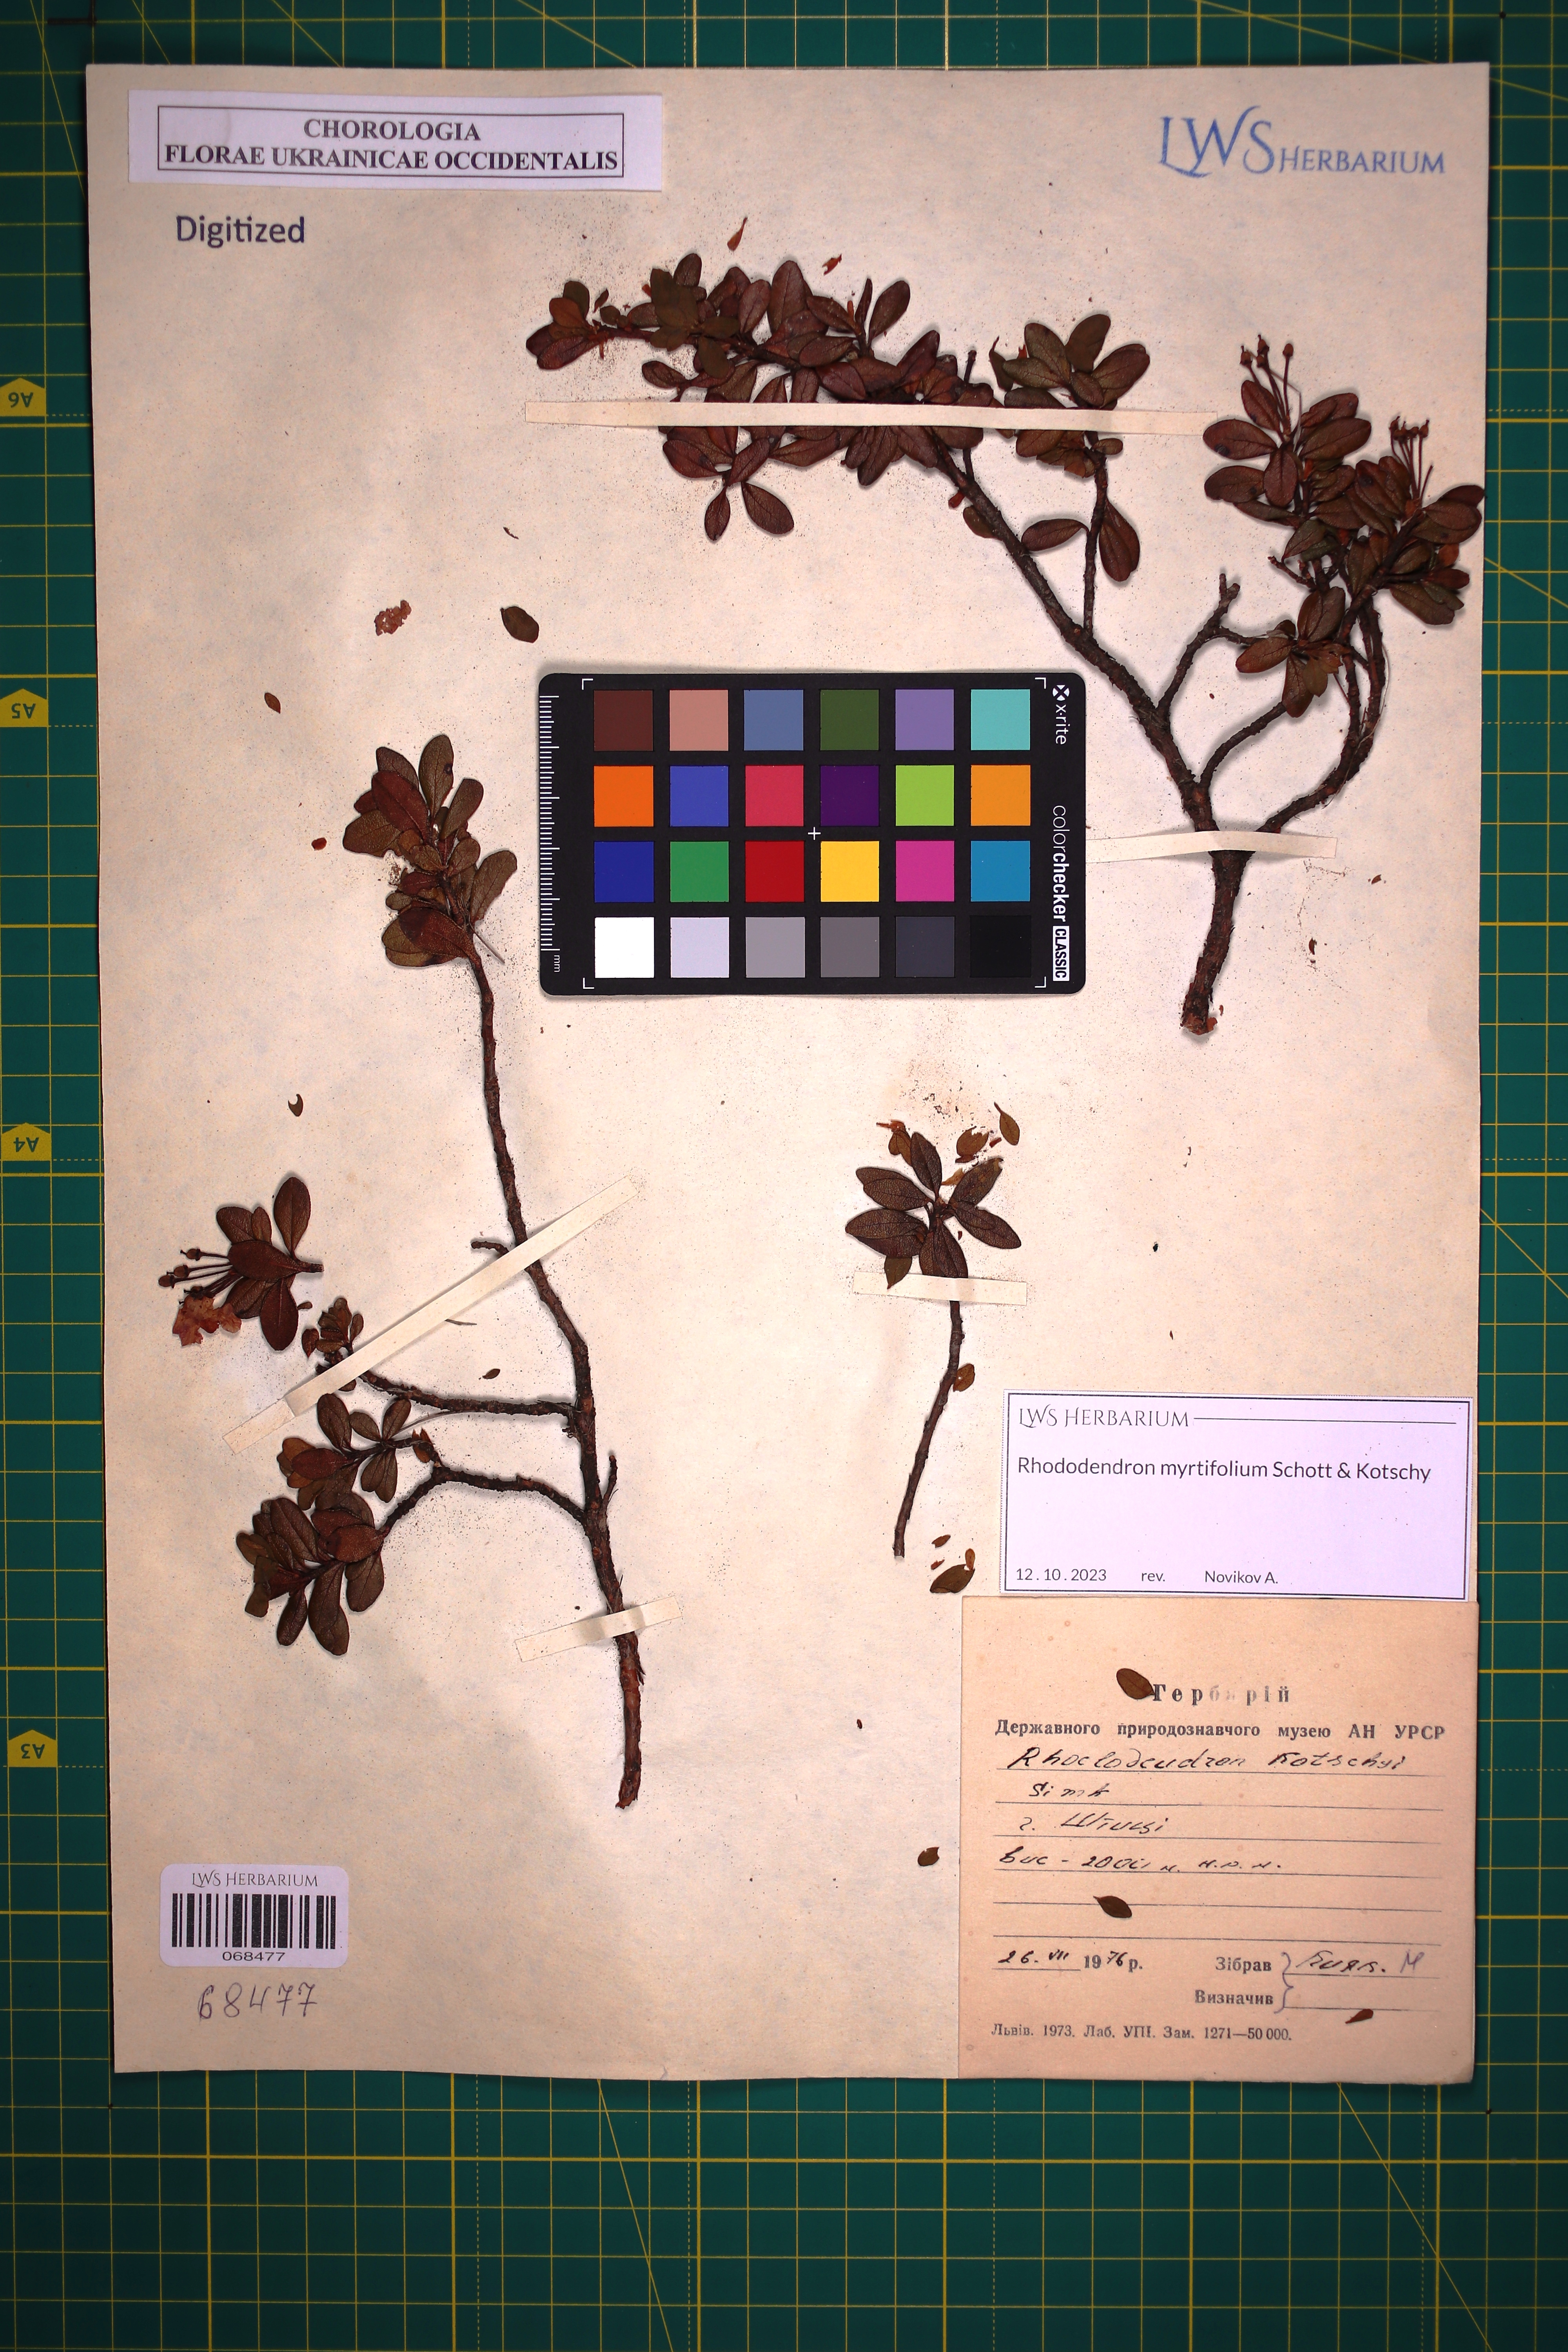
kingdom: Plantae
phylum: Tracheophyta
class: Magnoliopsida
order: Ericales
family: Ericaceae
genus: Rhododendron
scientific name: Rhododendron kotschyi
